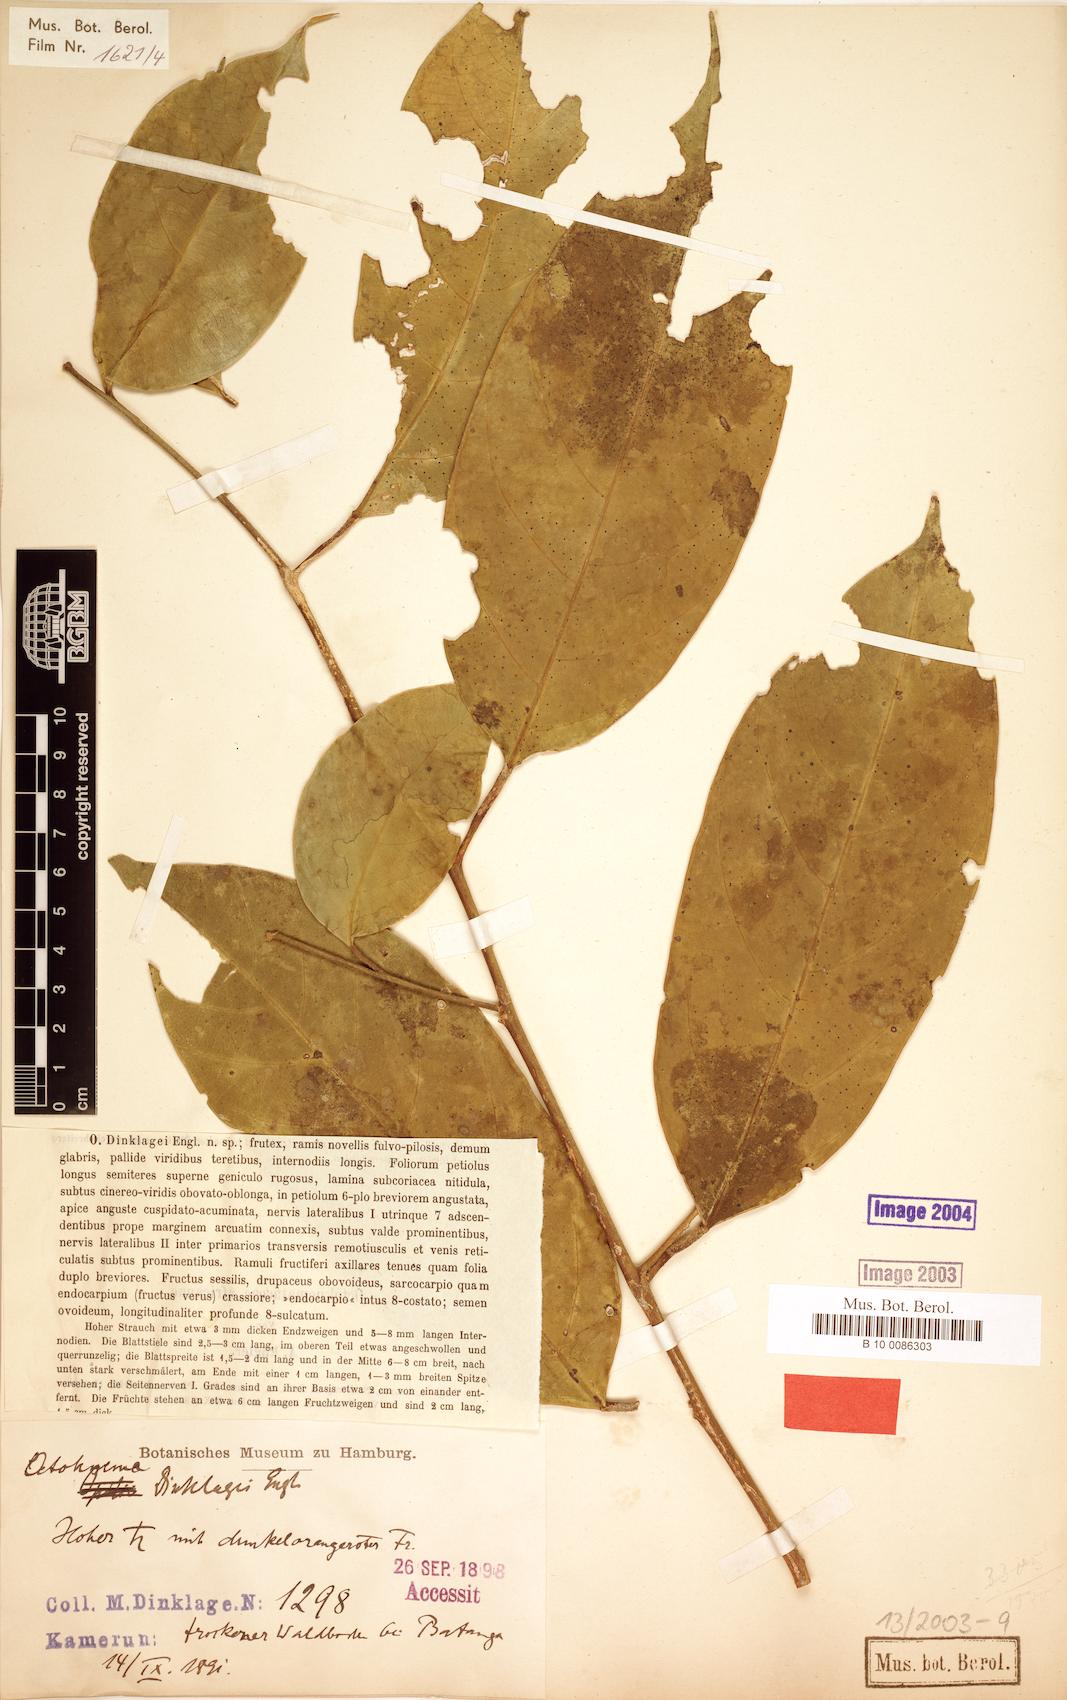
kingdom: Plantae
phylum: Tracheophyta
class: Magnoliopsida
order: Santalales
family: Octoknemaceae
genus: Octoknema
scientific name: Octoknema dinklagei
